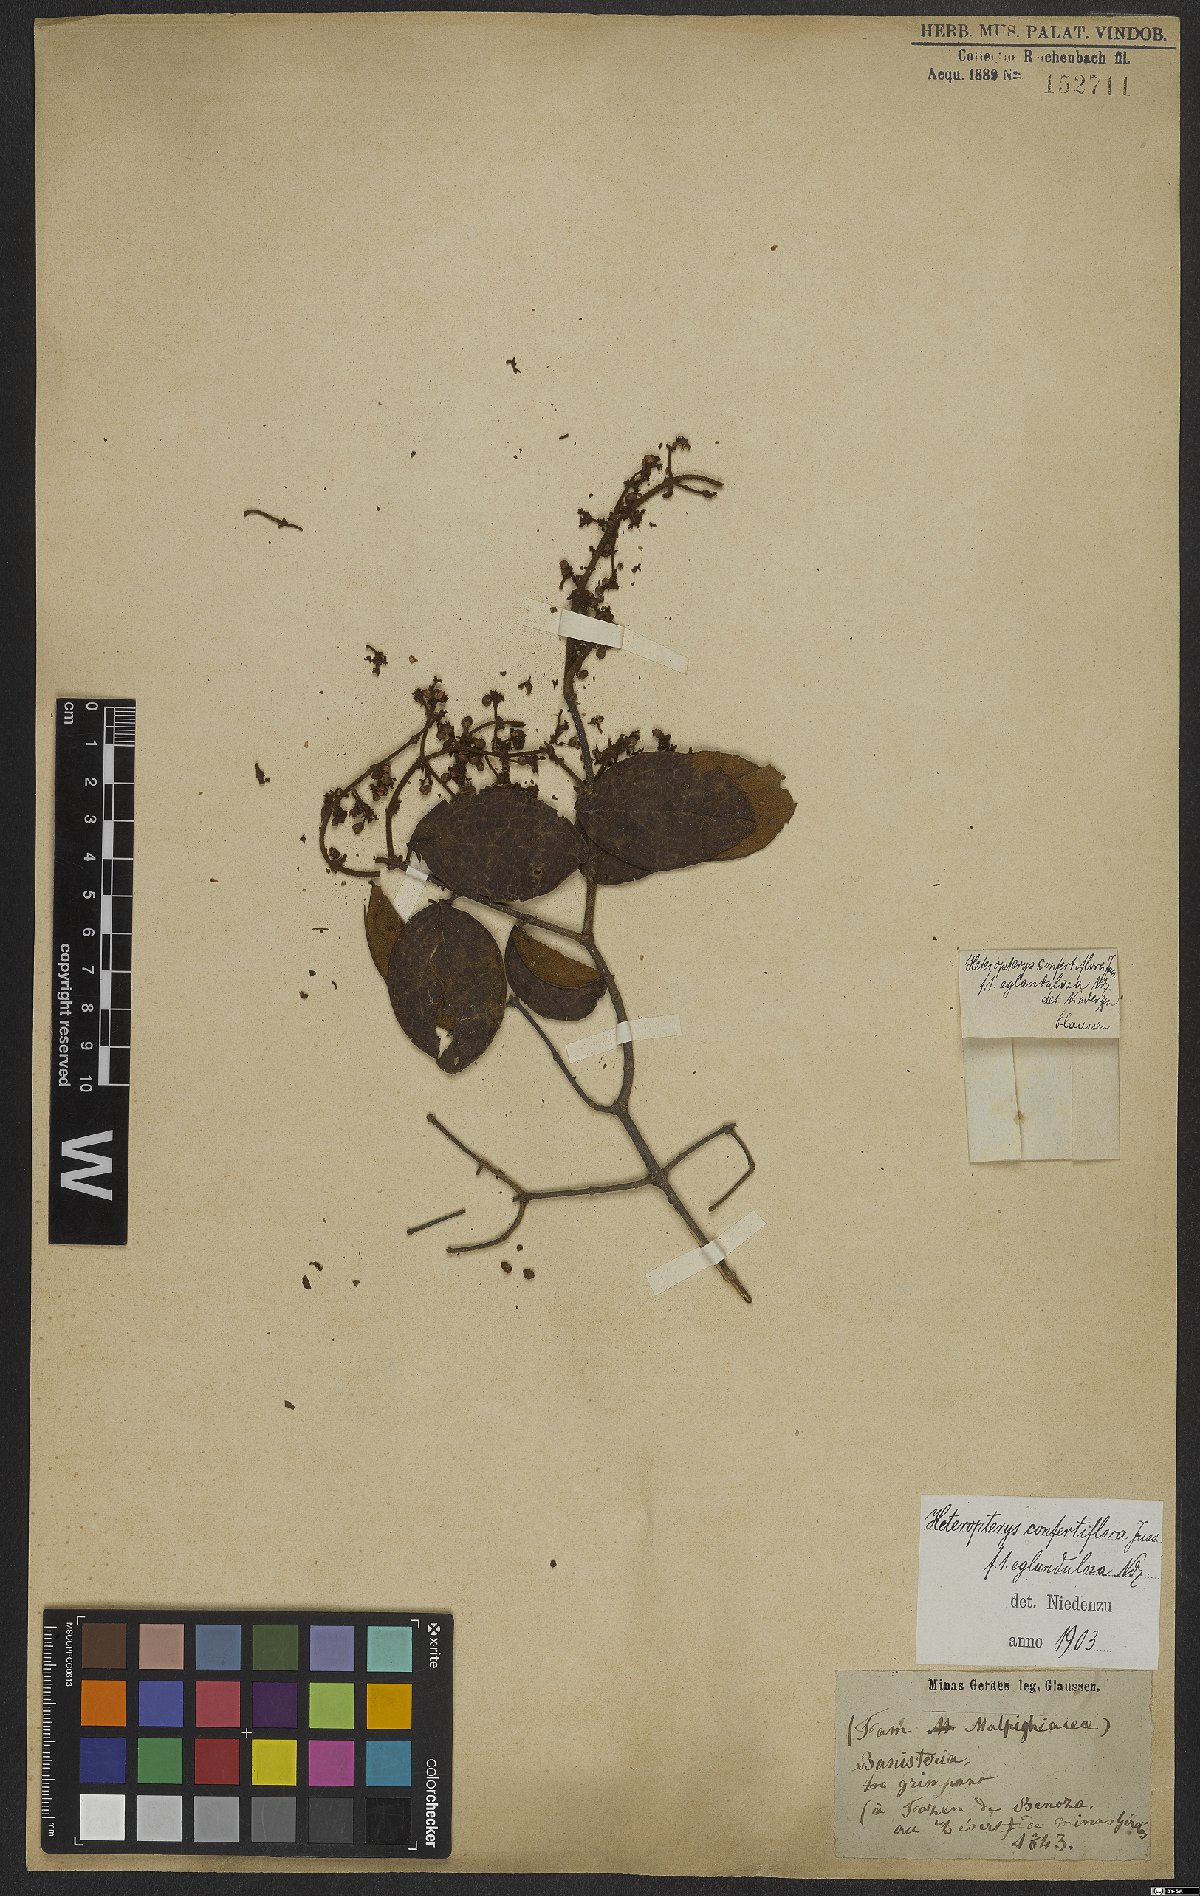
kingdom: Plantae
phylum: Tracheophyta
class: Magnoliopsida
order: Malpighiales
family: Malpighiaceae
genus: Heteropterys
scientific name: Heteropterys campestris
